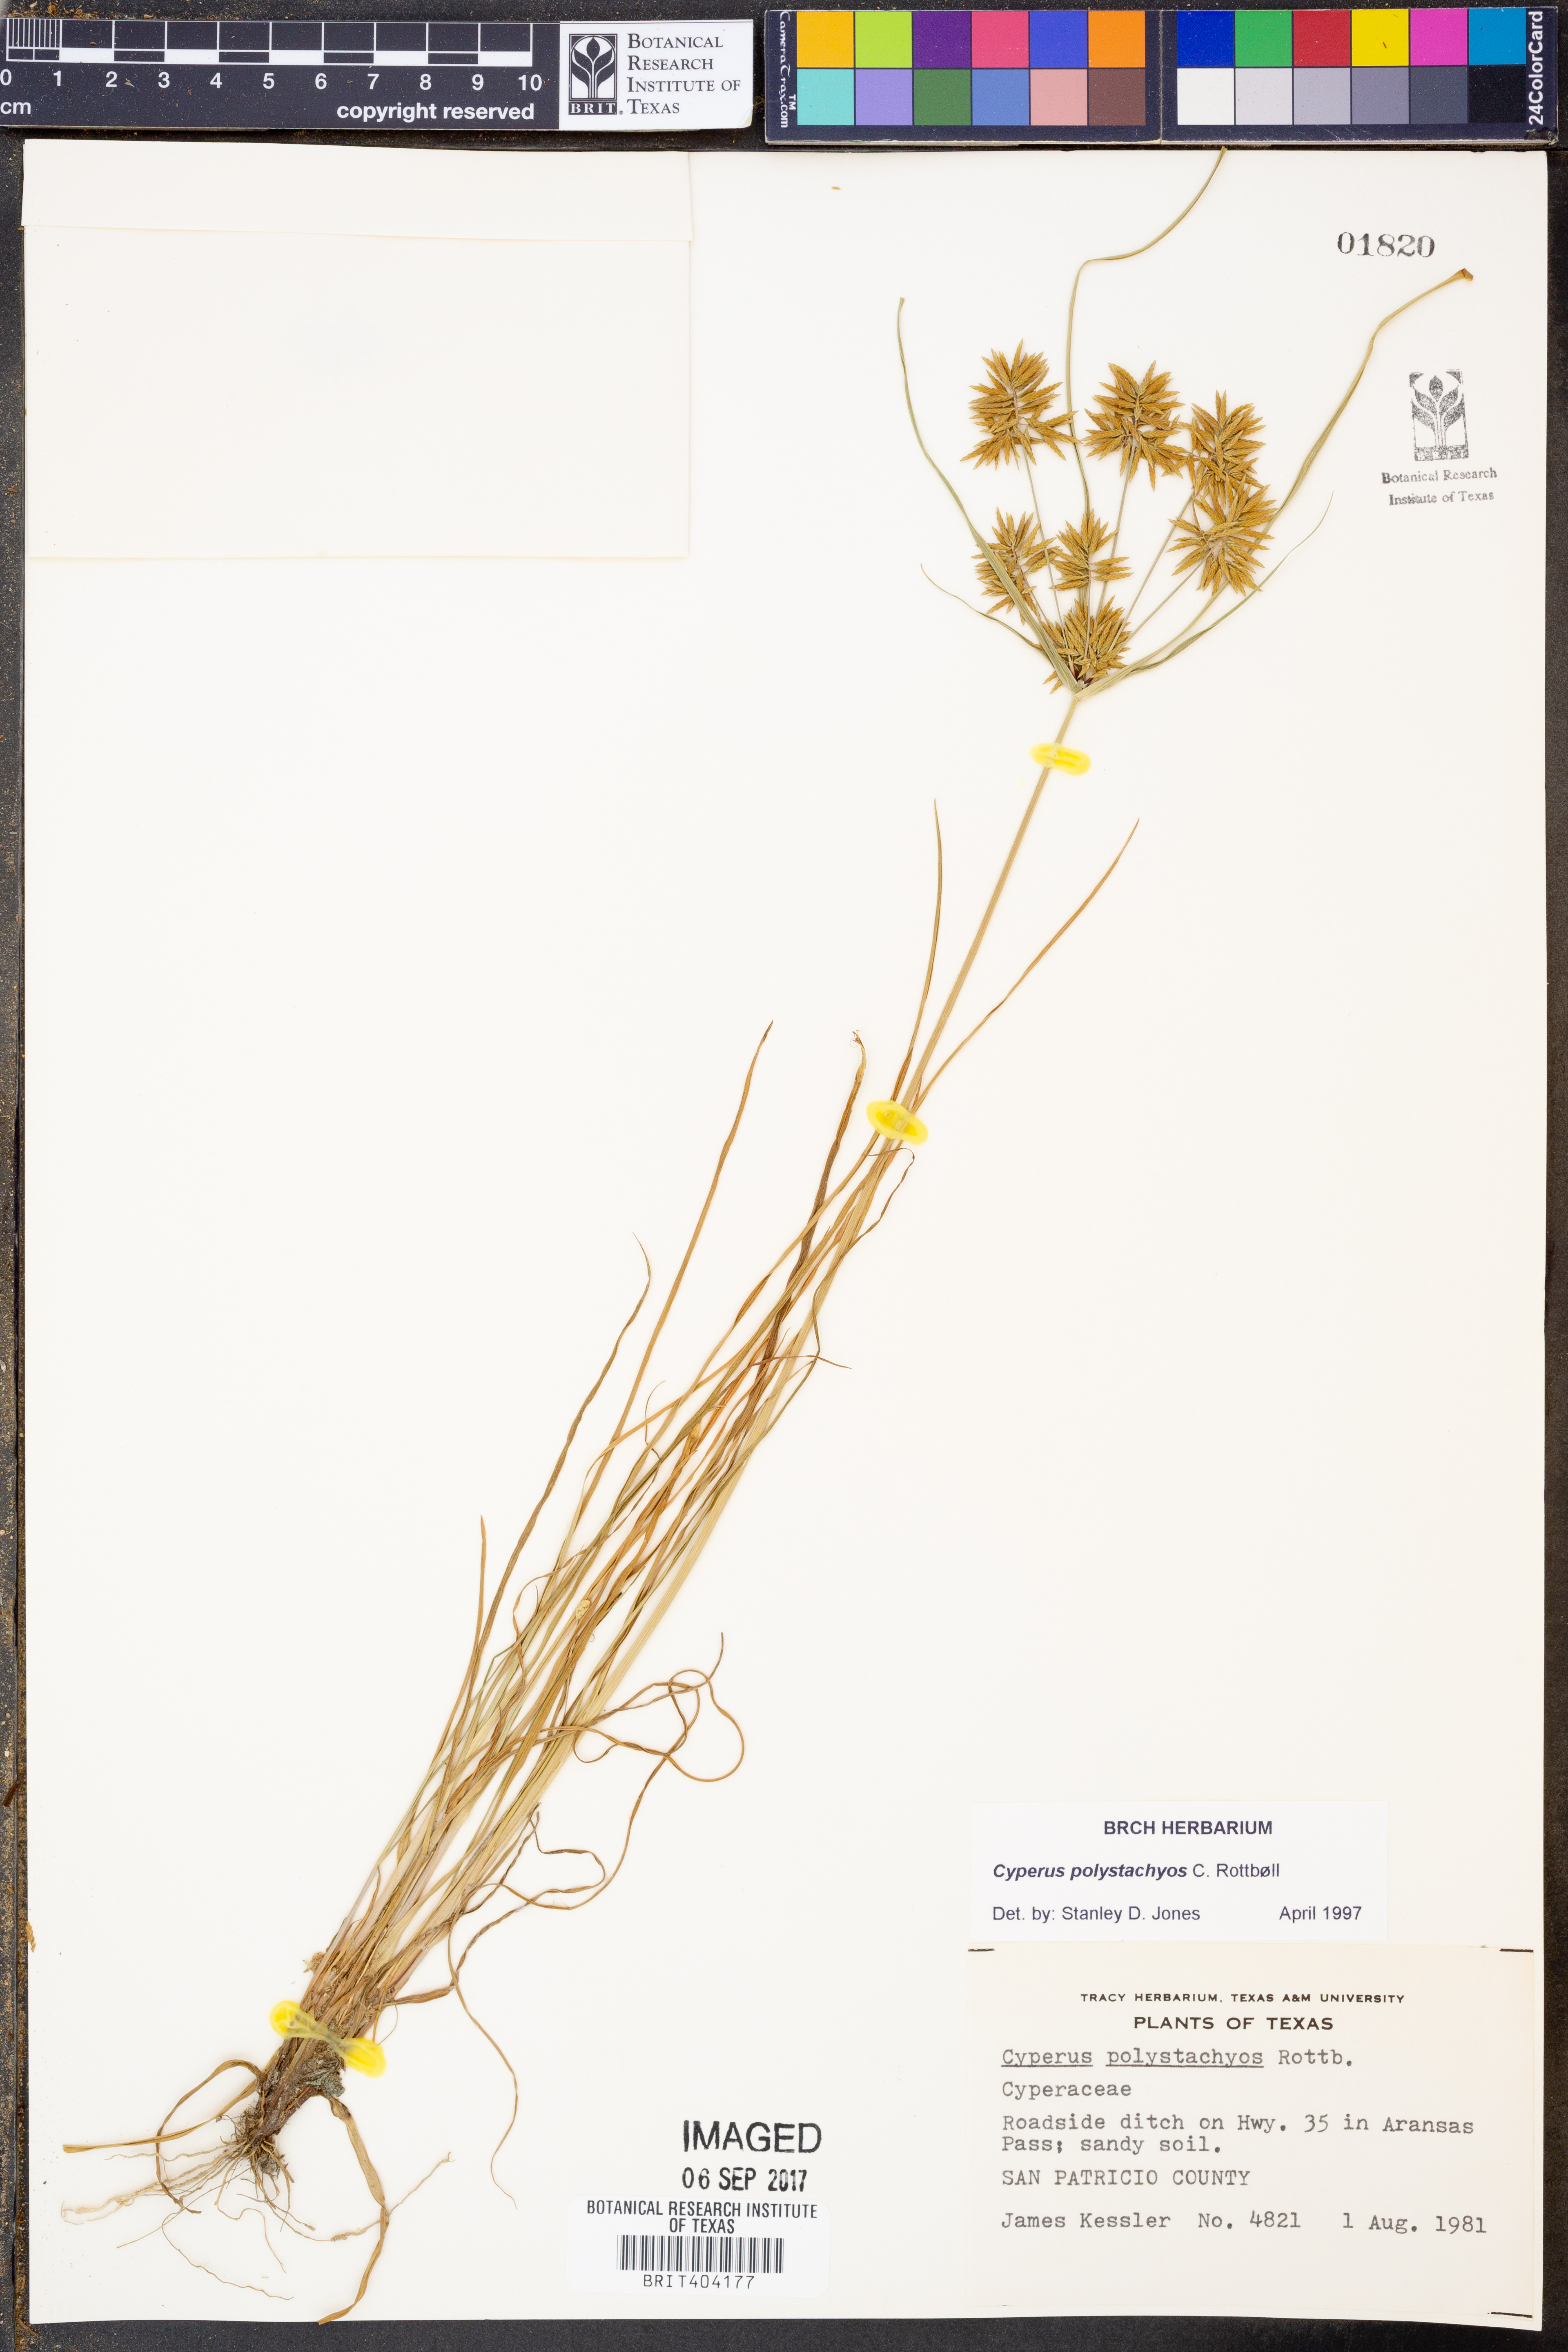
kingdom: Plantae
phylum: Tracheophyta
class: Liliopsida
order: Poales
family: Cyperaceae
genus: Cyperus
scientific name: Cyperus polystachyos
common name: Bunchy flat sedge
